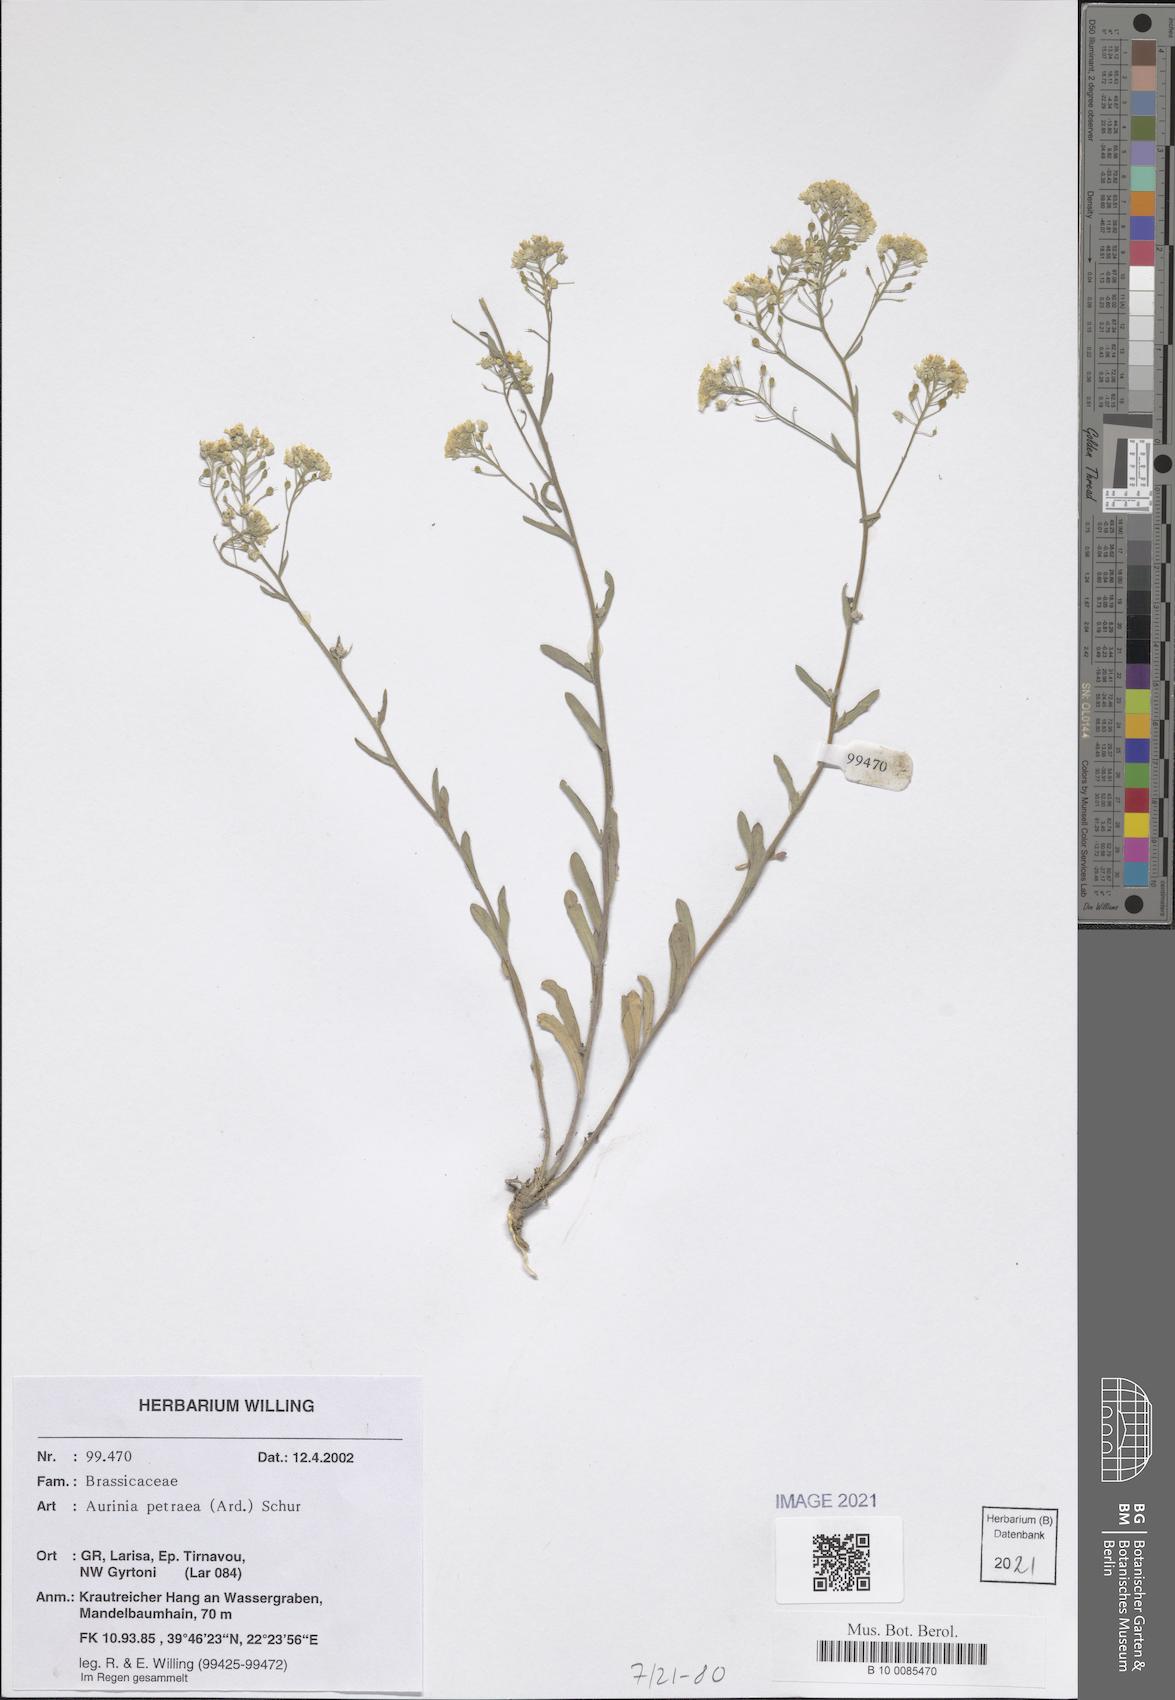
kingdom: Plantae
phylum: Tracheophyta
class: Magnoliopsida
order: Brassicales
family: Brassicaceae
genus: Aurinia
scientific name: Aurinia petraea
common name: Goldentuft
